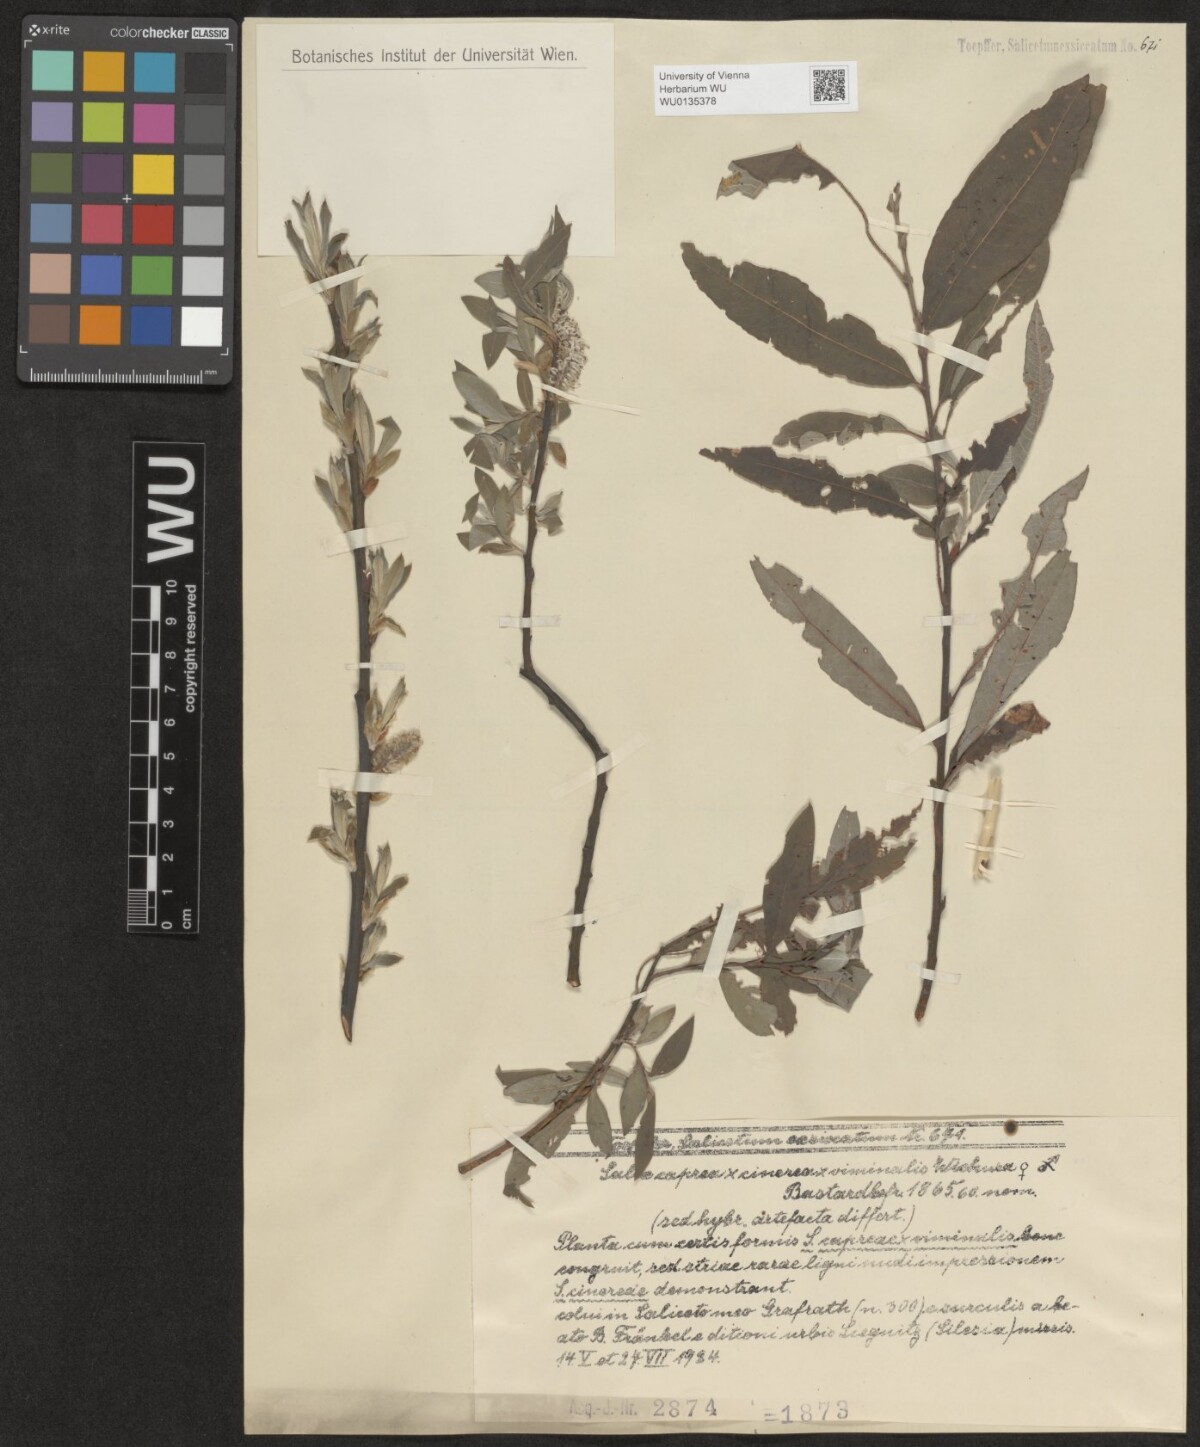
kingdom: Plantae
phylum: Tracheophyta
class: Magnoliopsida
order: Malpighiales
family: Salicaceae
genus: Salix
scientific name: Salix
